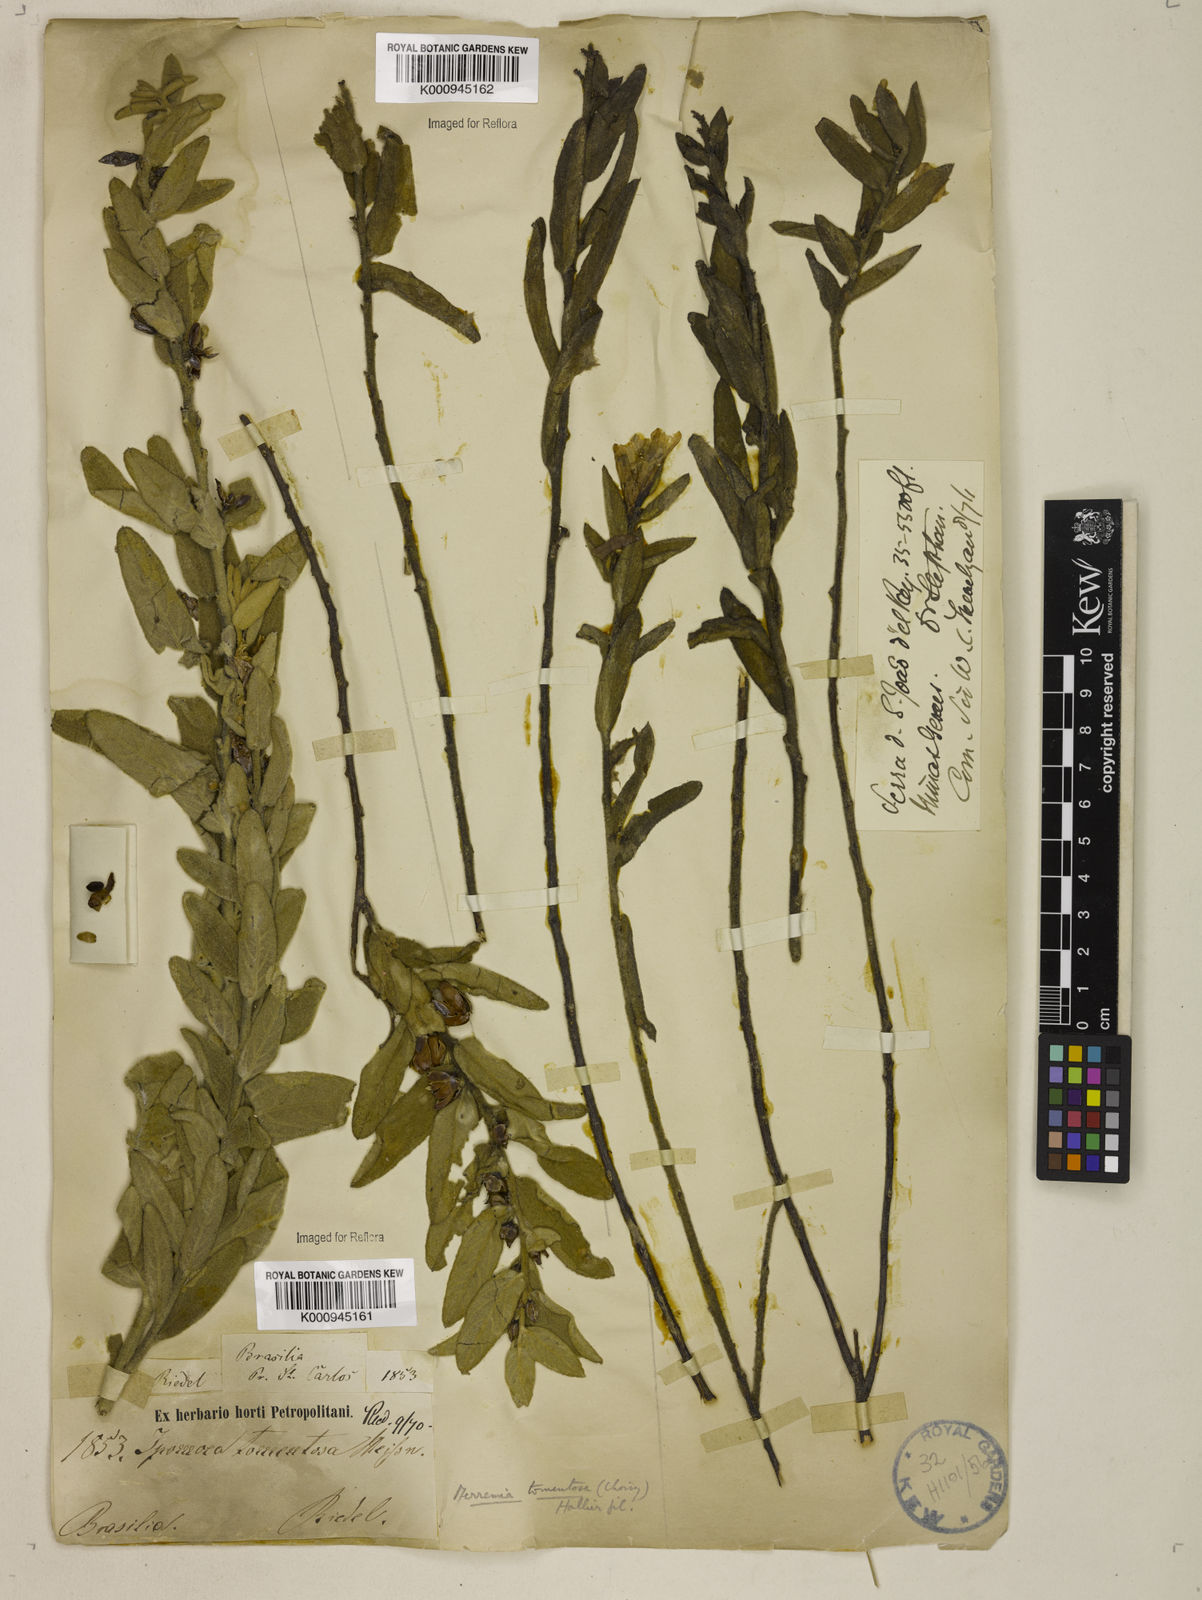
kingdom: Plantae
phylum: Tracheophyta
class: Magnoliopsida
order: Solanales
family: Convolvulaceae
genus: Distimake
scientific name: Distimake tomentosus
